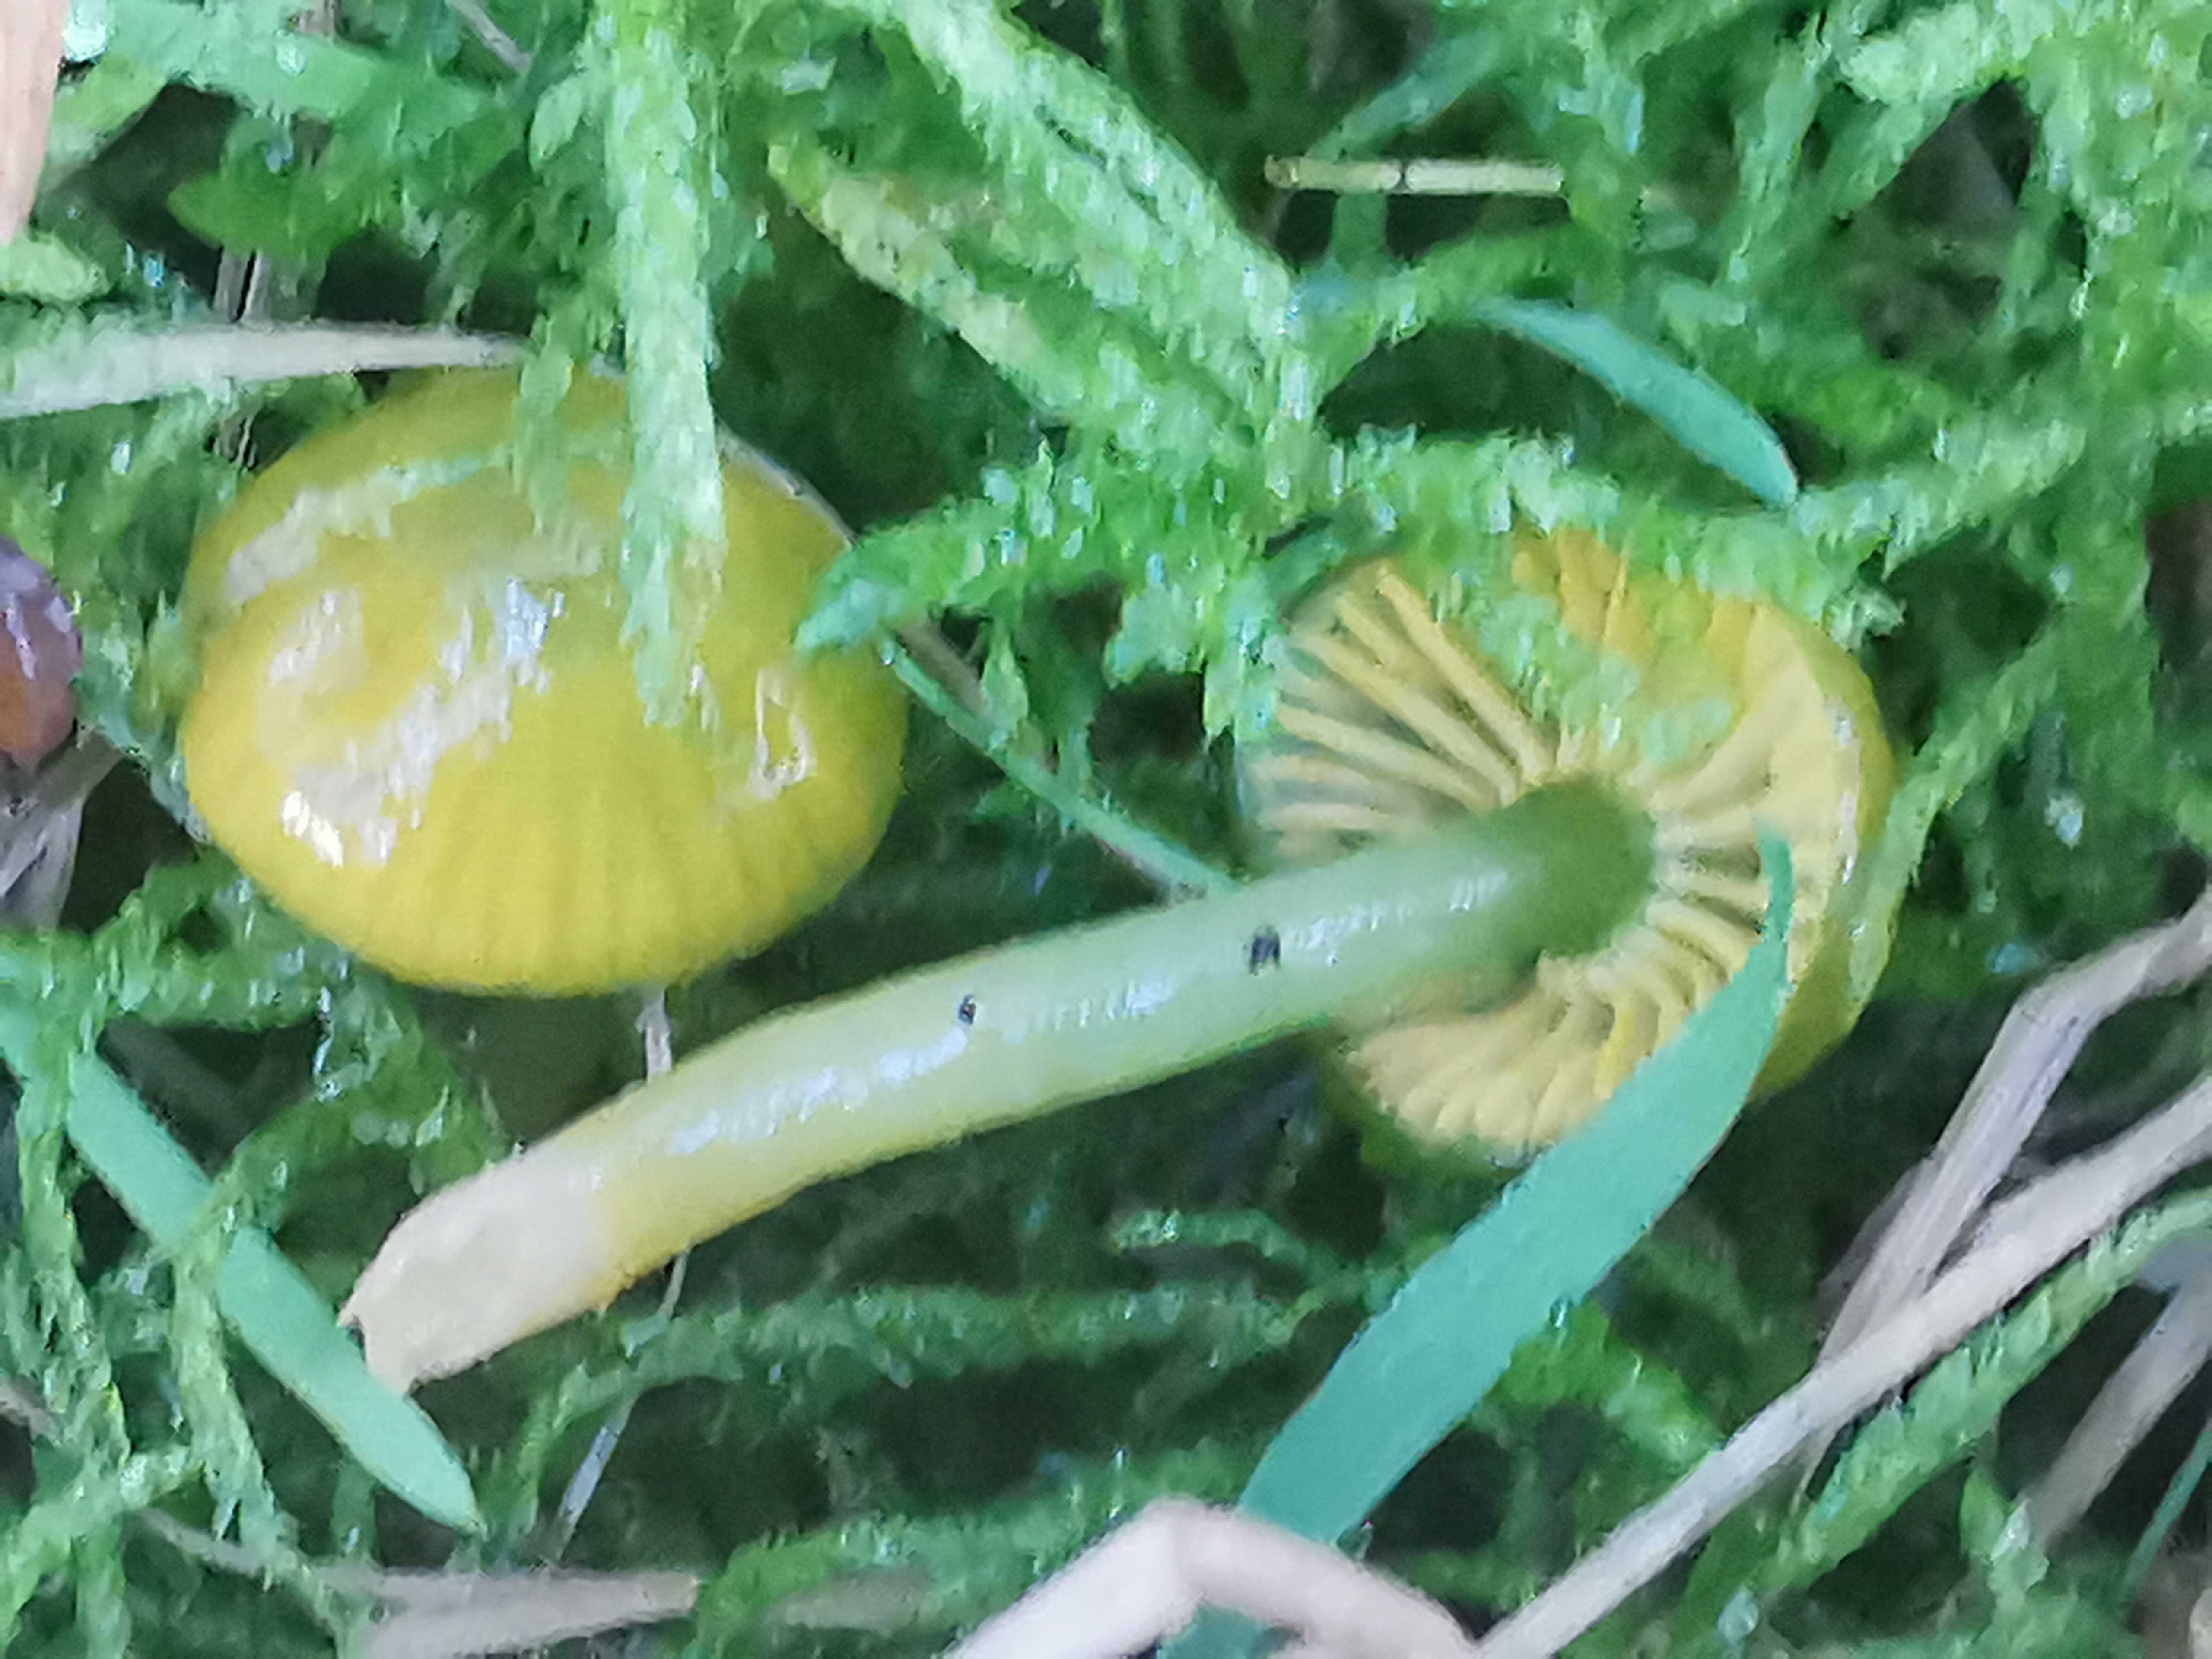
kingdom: Fungi
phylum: Basidiomycota
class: Agaricomycetes
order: Agaricales
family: Hygrophoraceae
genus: Gliophorus
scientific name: Gliophorus psittacinus
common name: papegøje-vokshat
